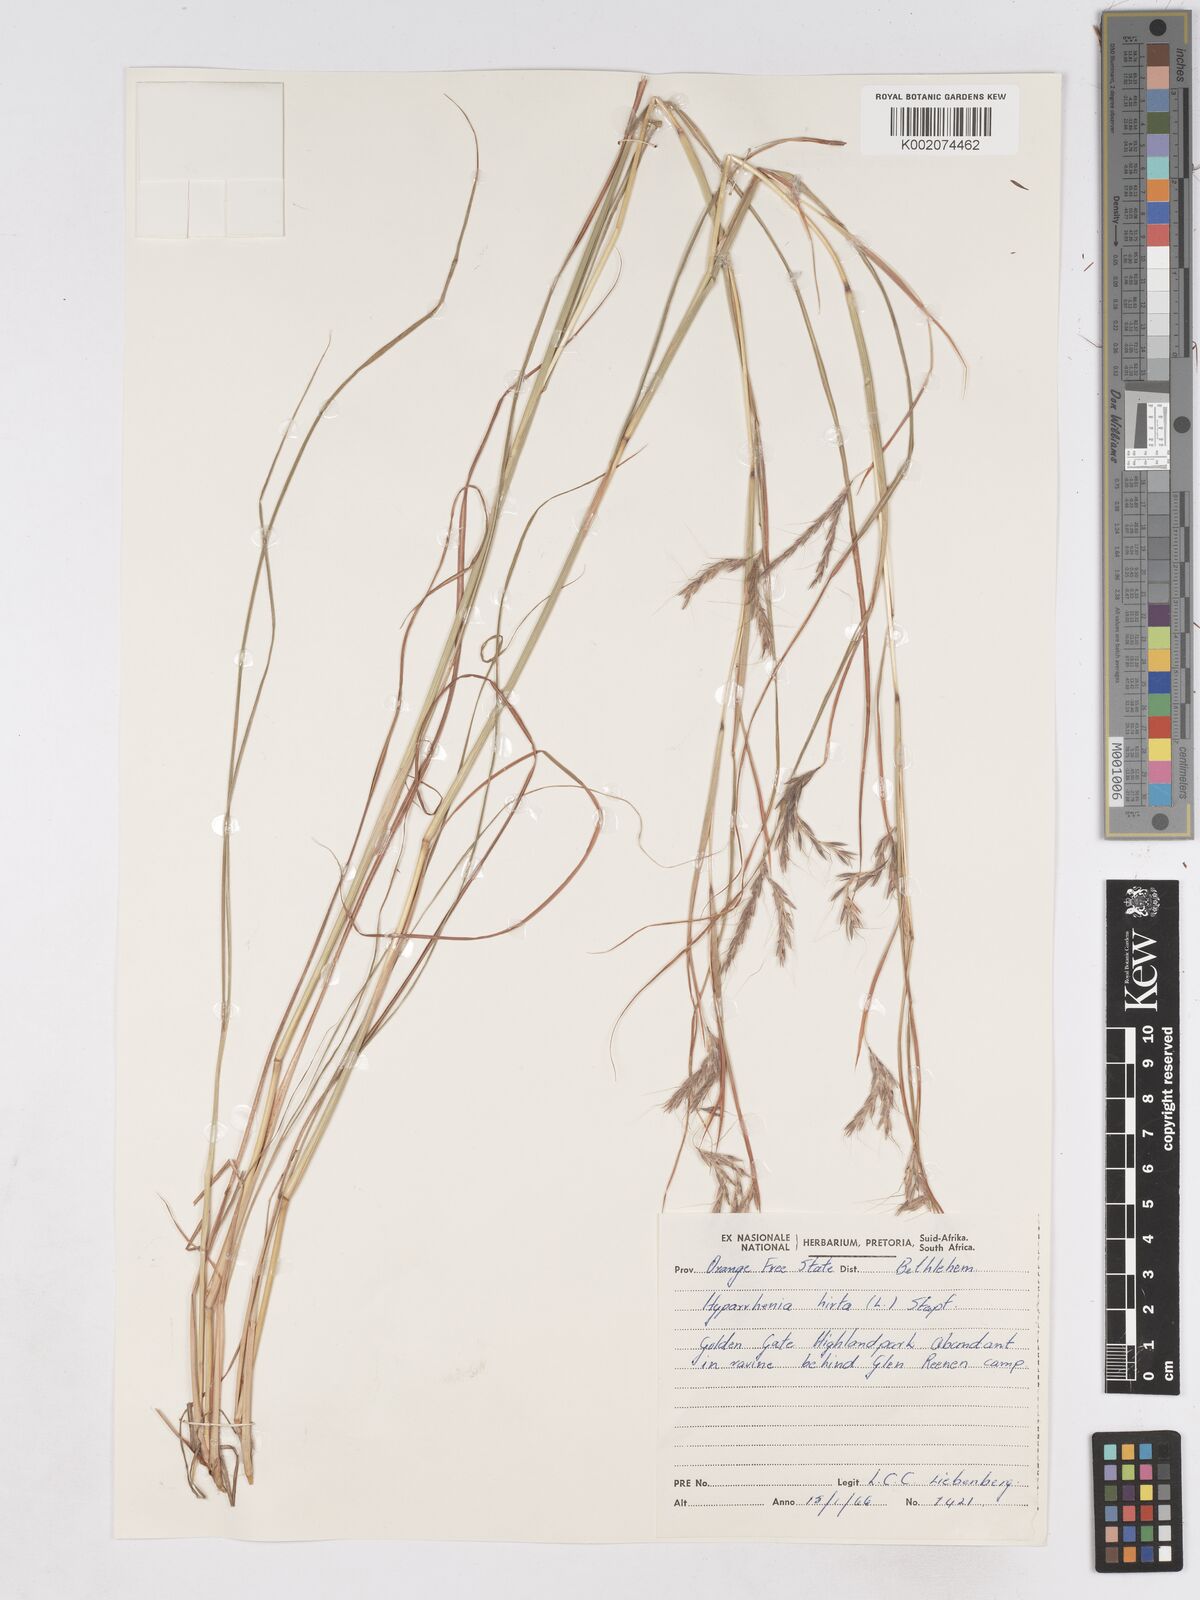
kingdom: Plantae
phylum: Tracheophyta
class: Liliopsida
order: Poales
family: Poaceae
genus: Hyparrhenia
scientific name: Hyparrhenia hirta
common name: Thatching grass
